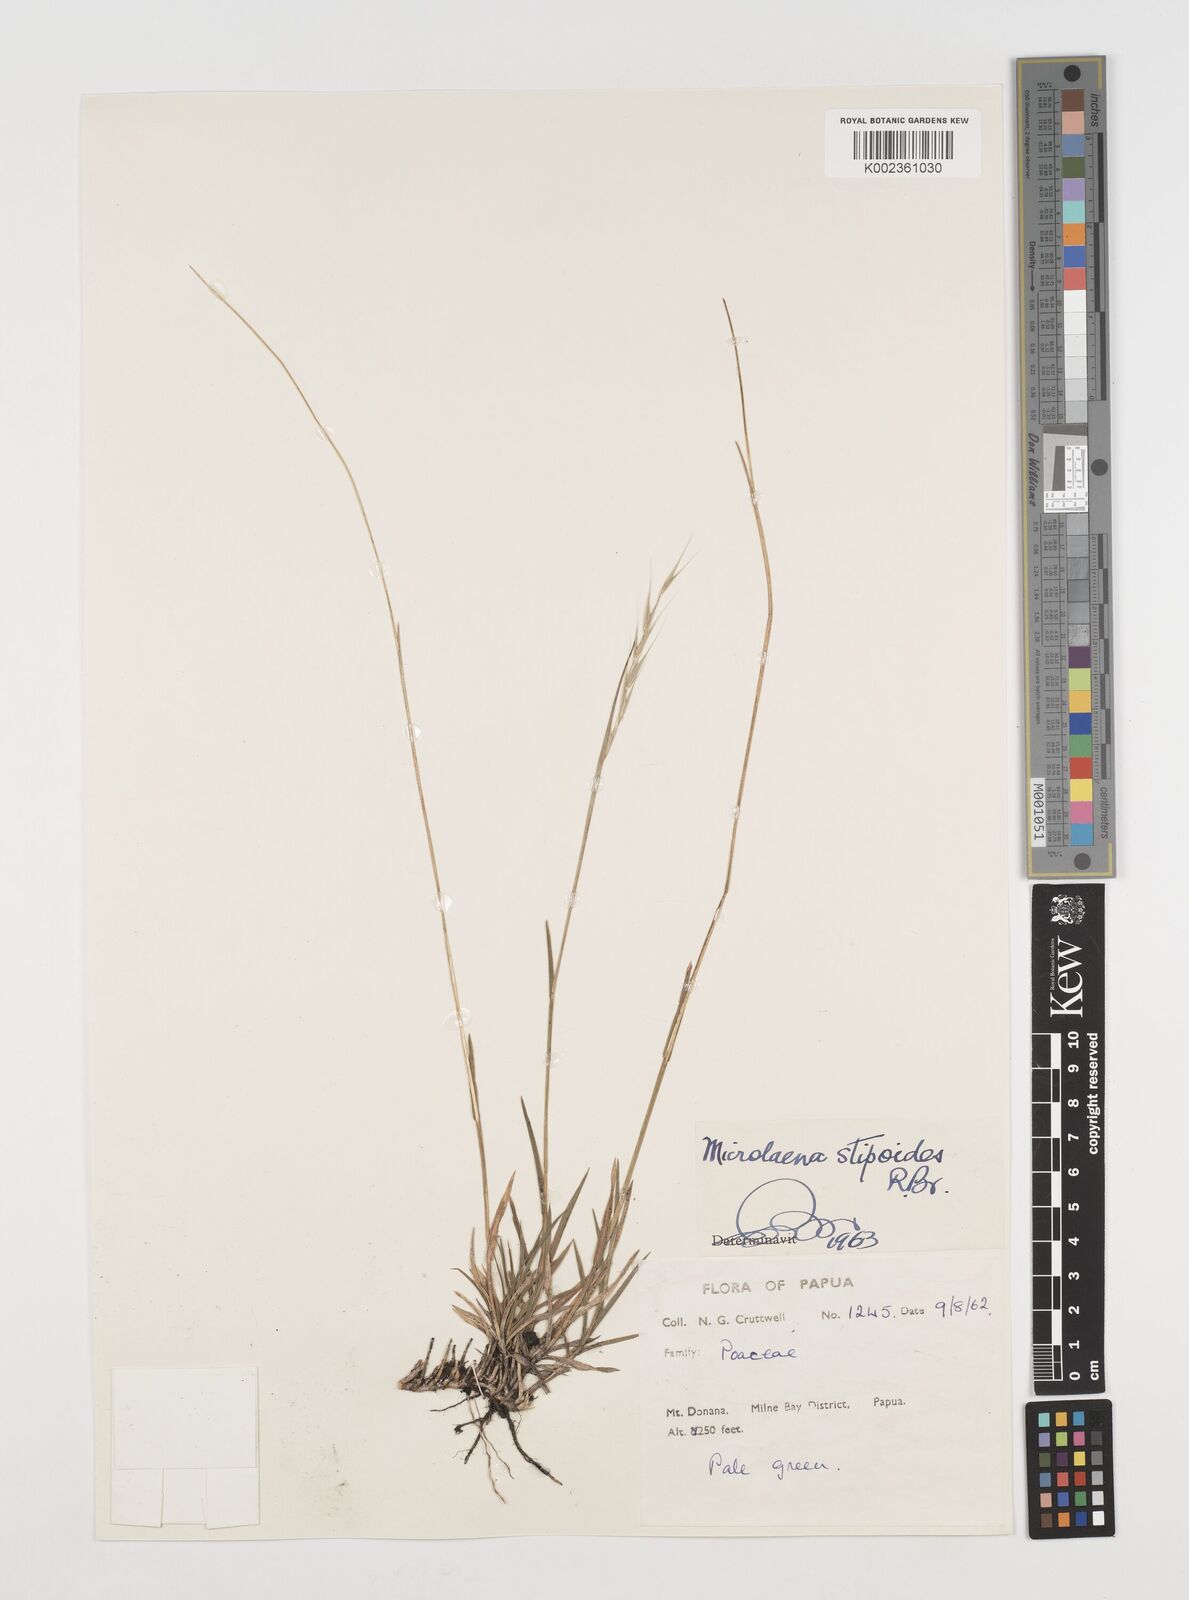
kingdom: Plantae
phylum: Tracheophyta
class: Liliopsida
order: Poales
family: Poaceae
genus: Microlaena
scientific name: Microlaena stipoides
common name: Meadow ricegrass
